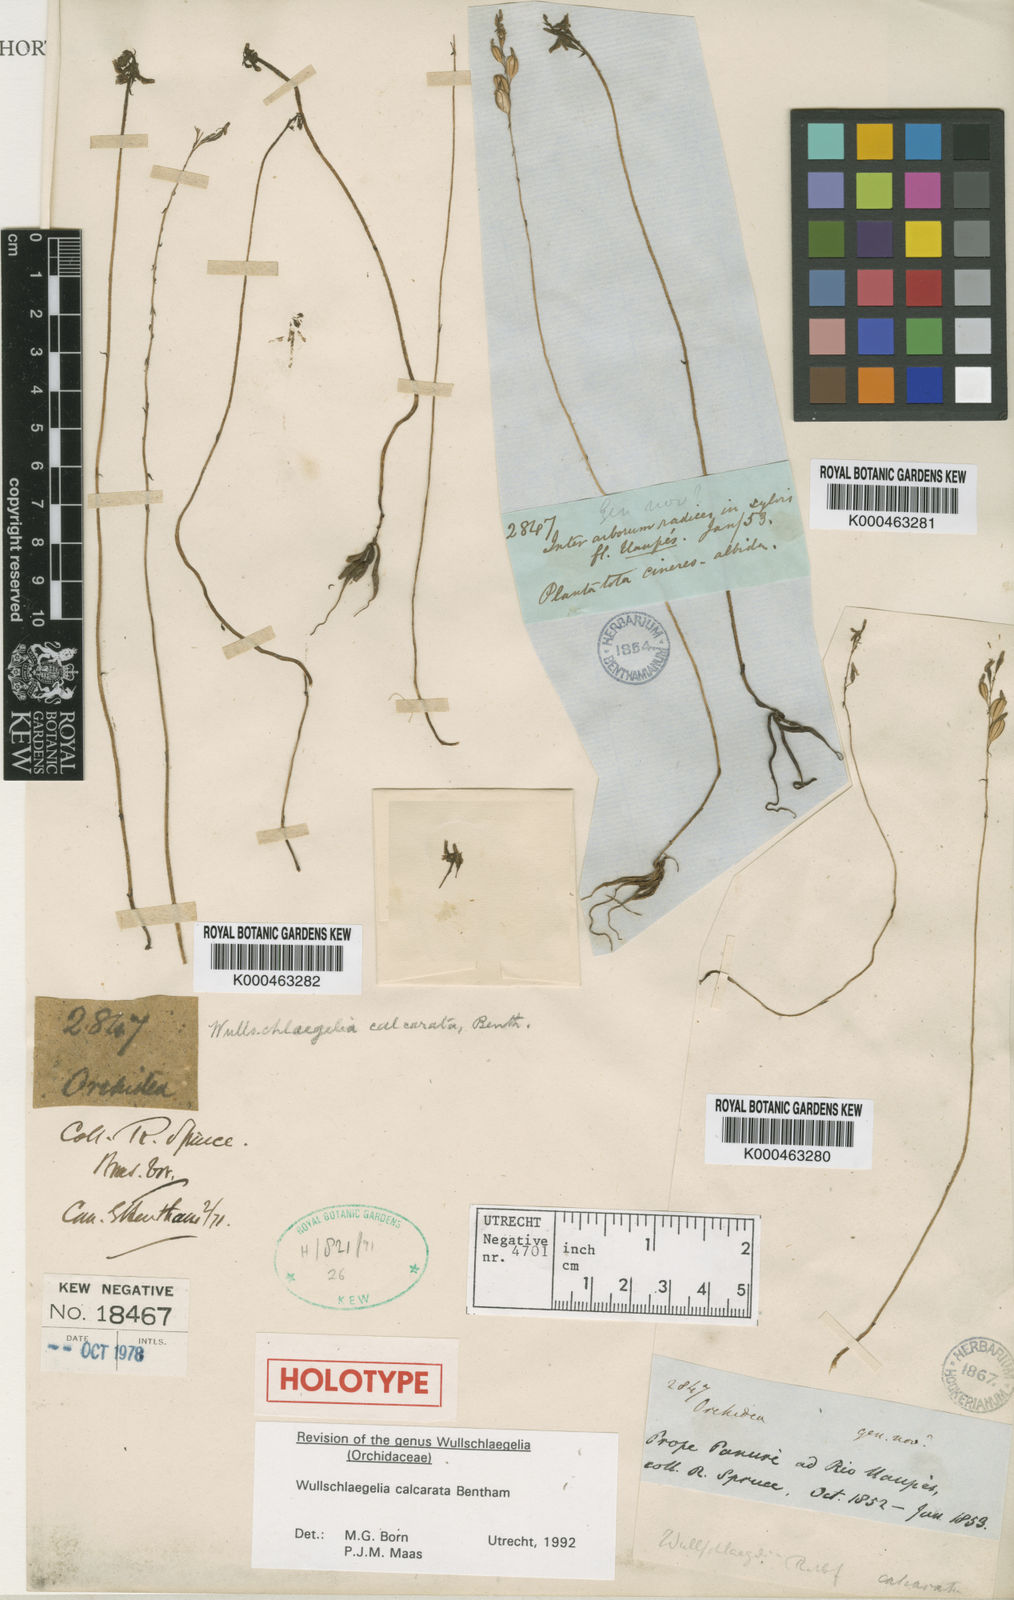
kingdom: Plantae
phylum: Tracheophyta
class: Liliopsida
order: Asparagales
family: Orchidaceae
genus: Wullschlaegelia
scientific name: Wullschlaegelia calcarata
